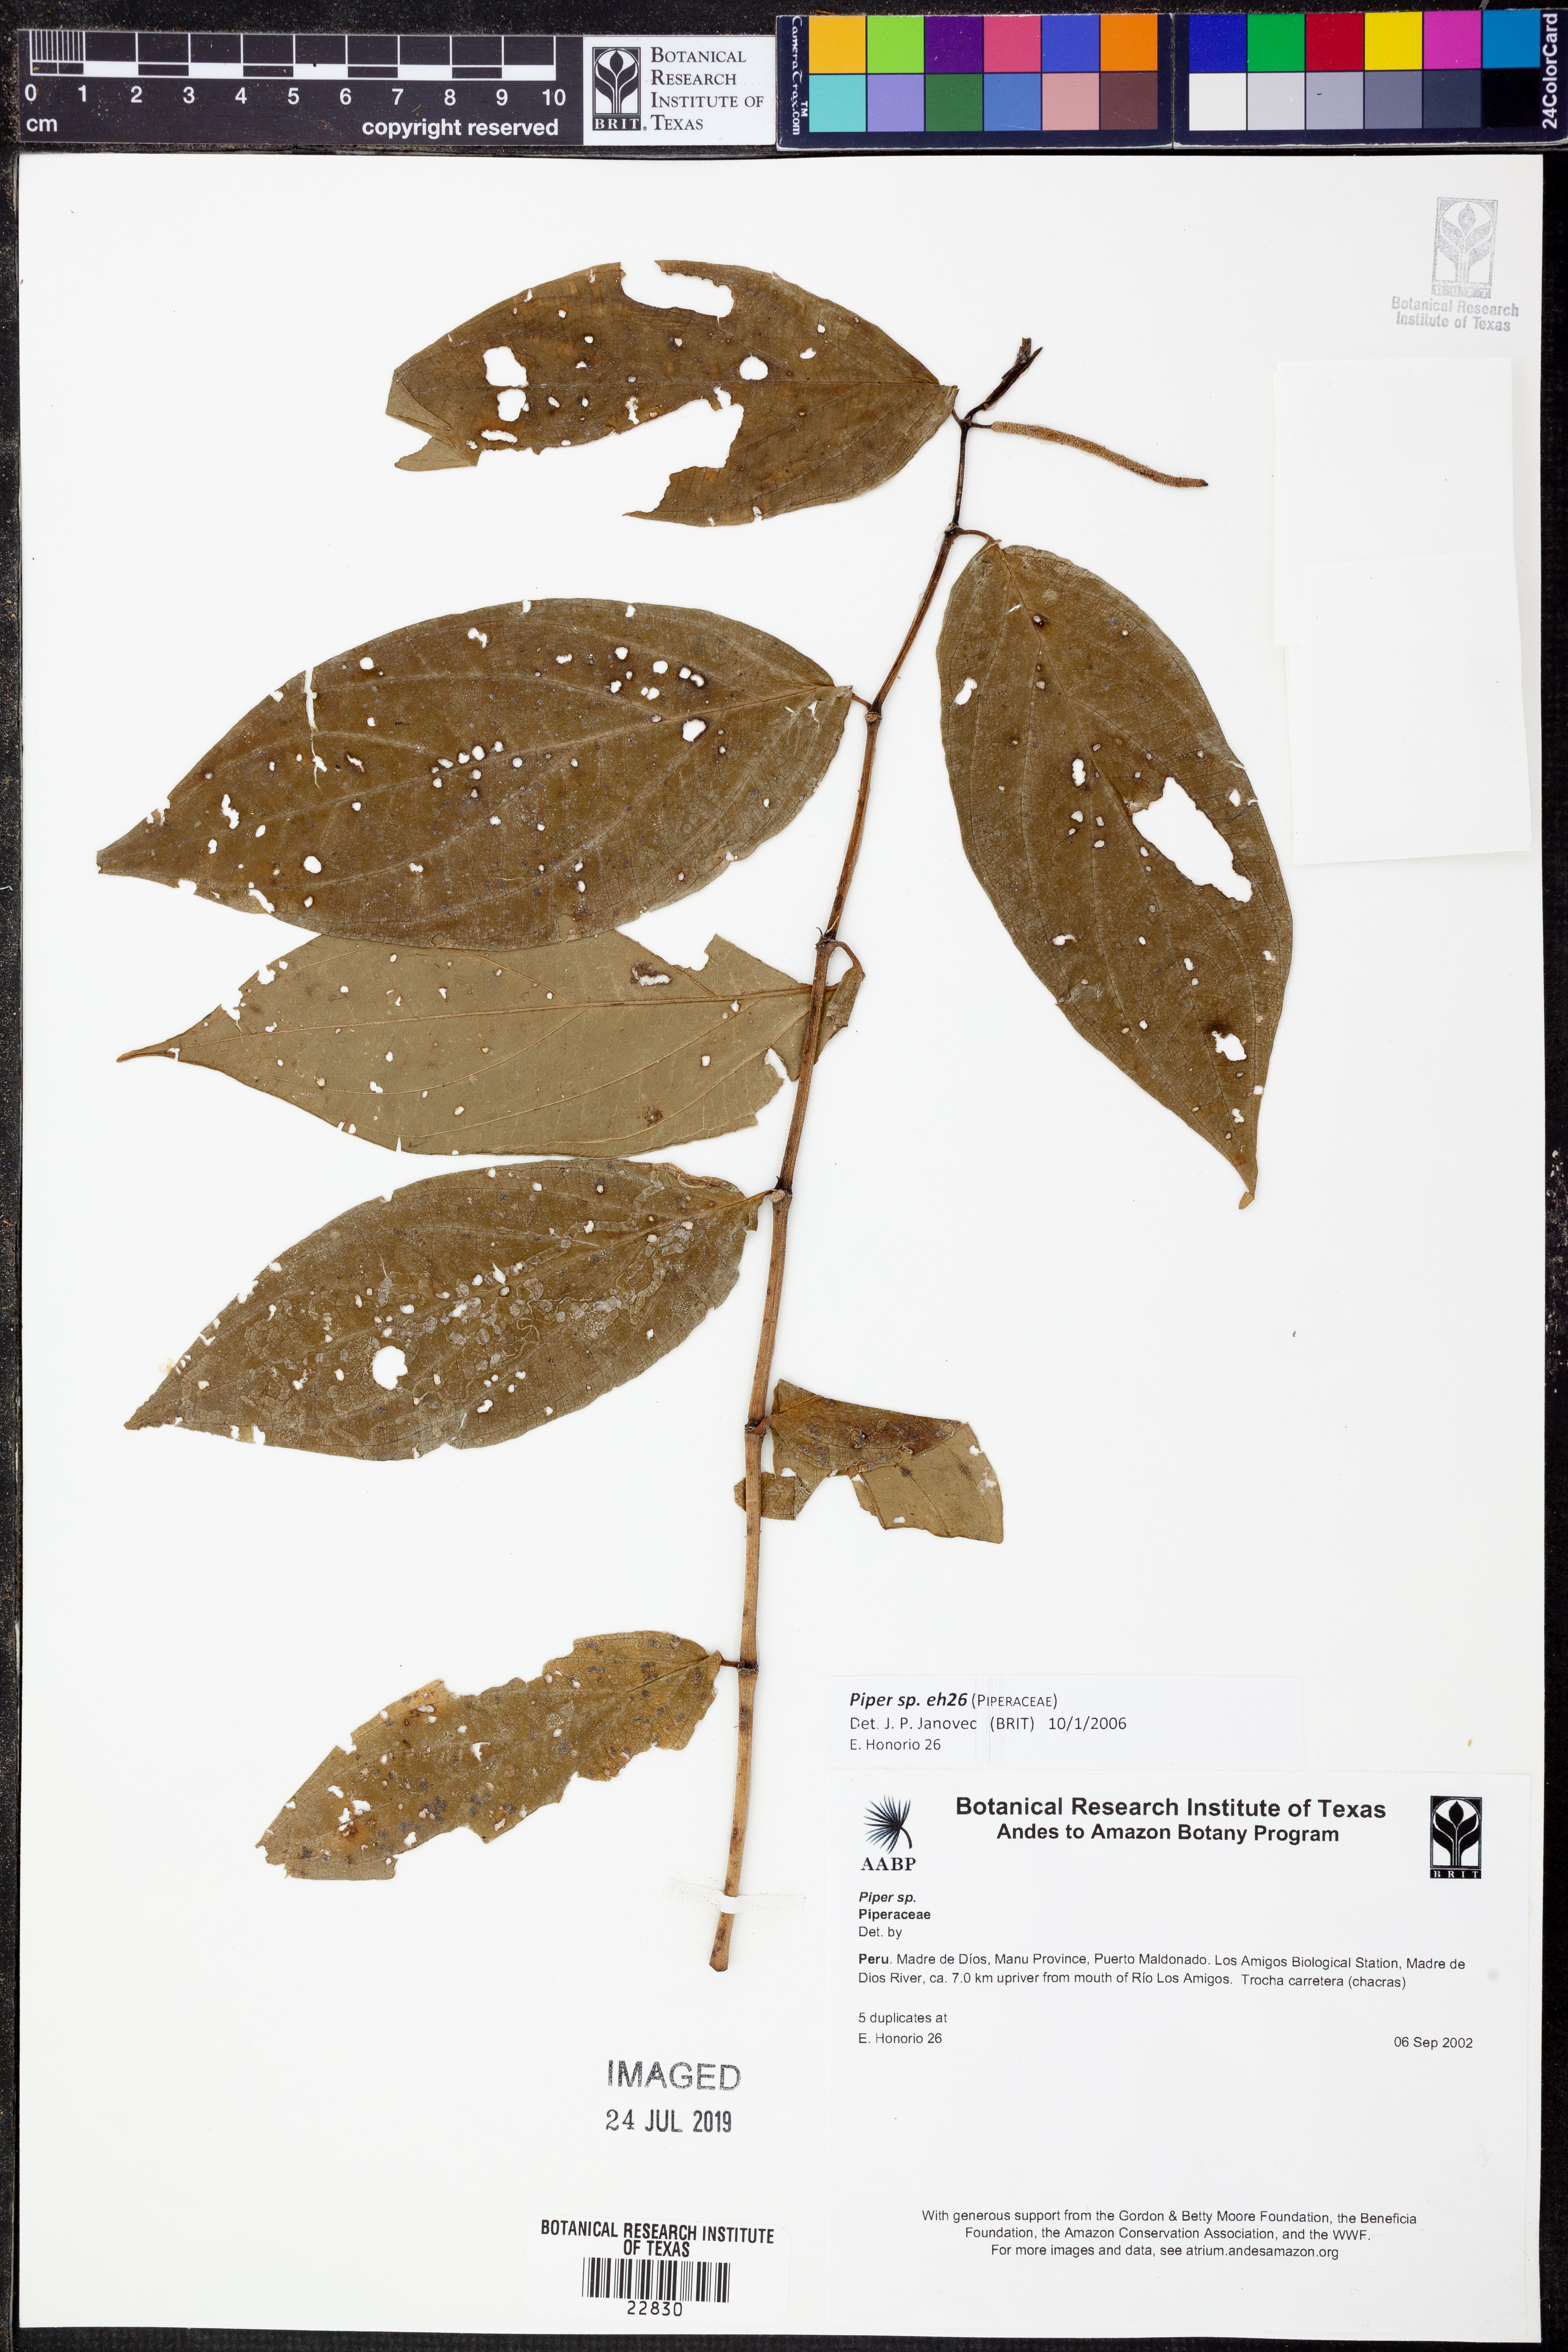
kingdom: Plantae
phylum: Tracheophyta
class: Magnoliopsida
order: Piperales
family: Piperaceae
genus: Piper
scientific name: Piper
